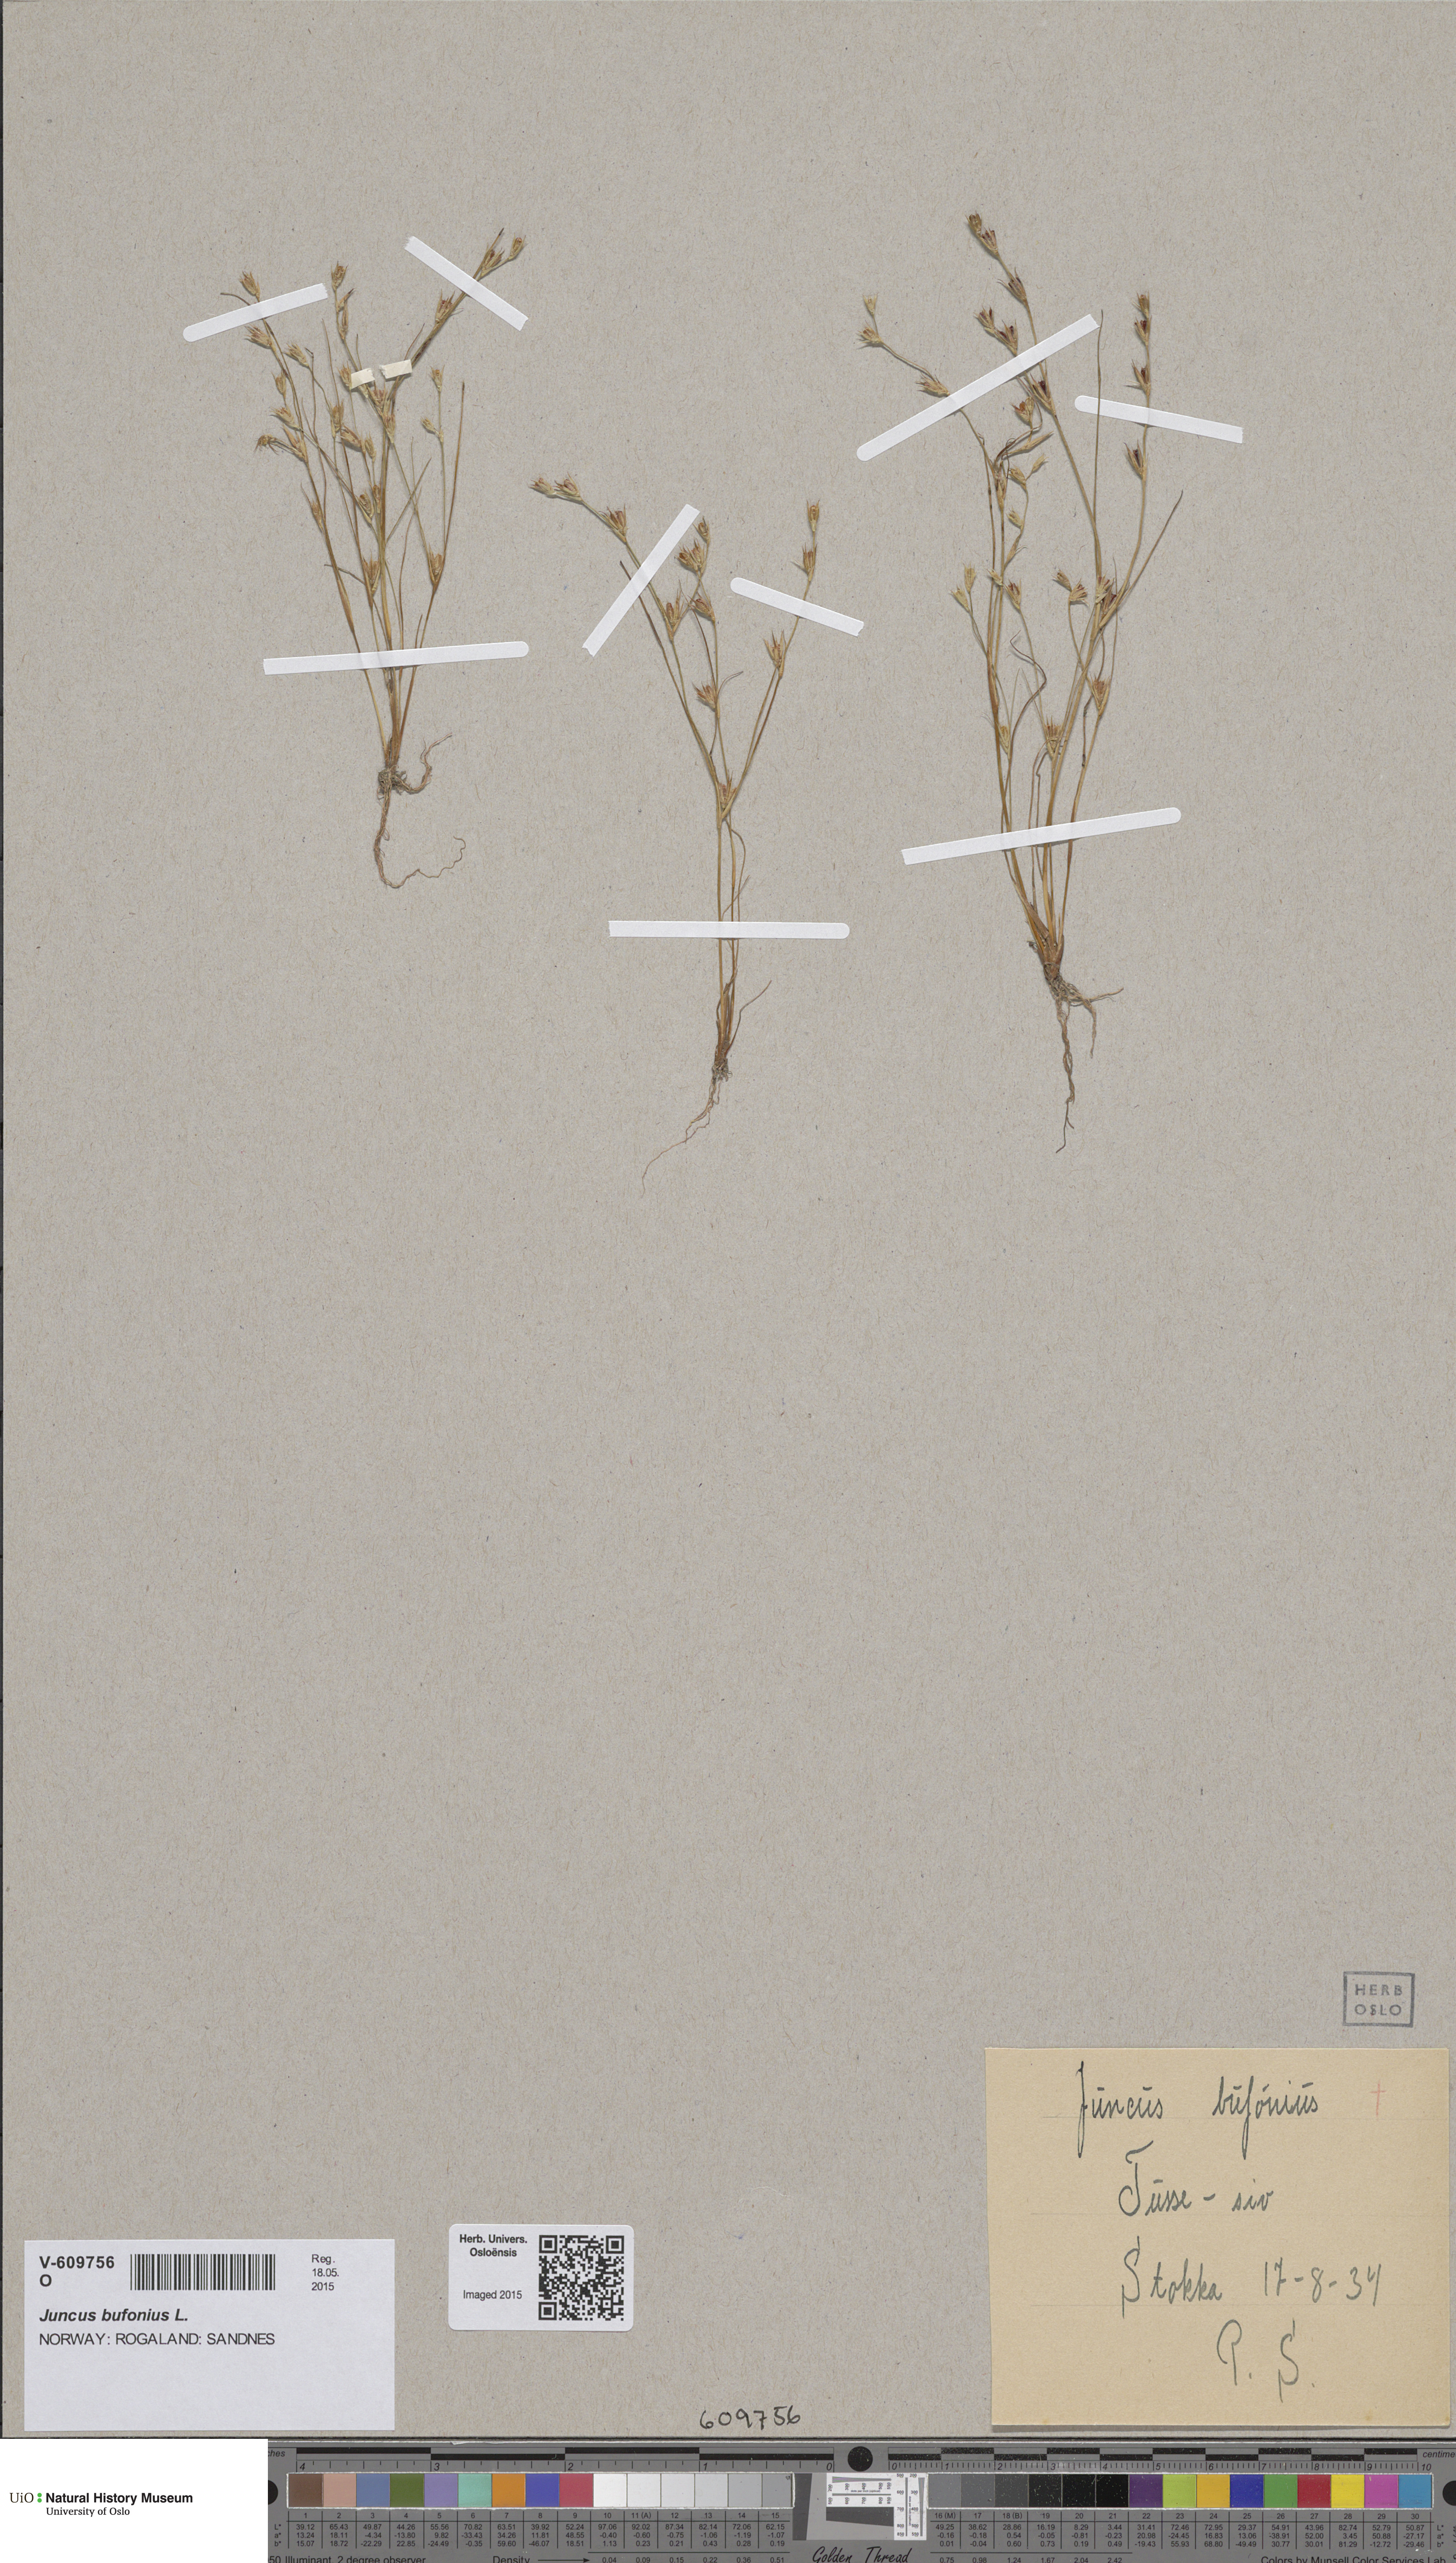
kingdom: Plantae
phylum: Tracheophyta
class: Liliopsida
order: Poales
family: Juncaceae
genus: Juncus
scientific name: Juncus bufonius
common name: Toad rush
